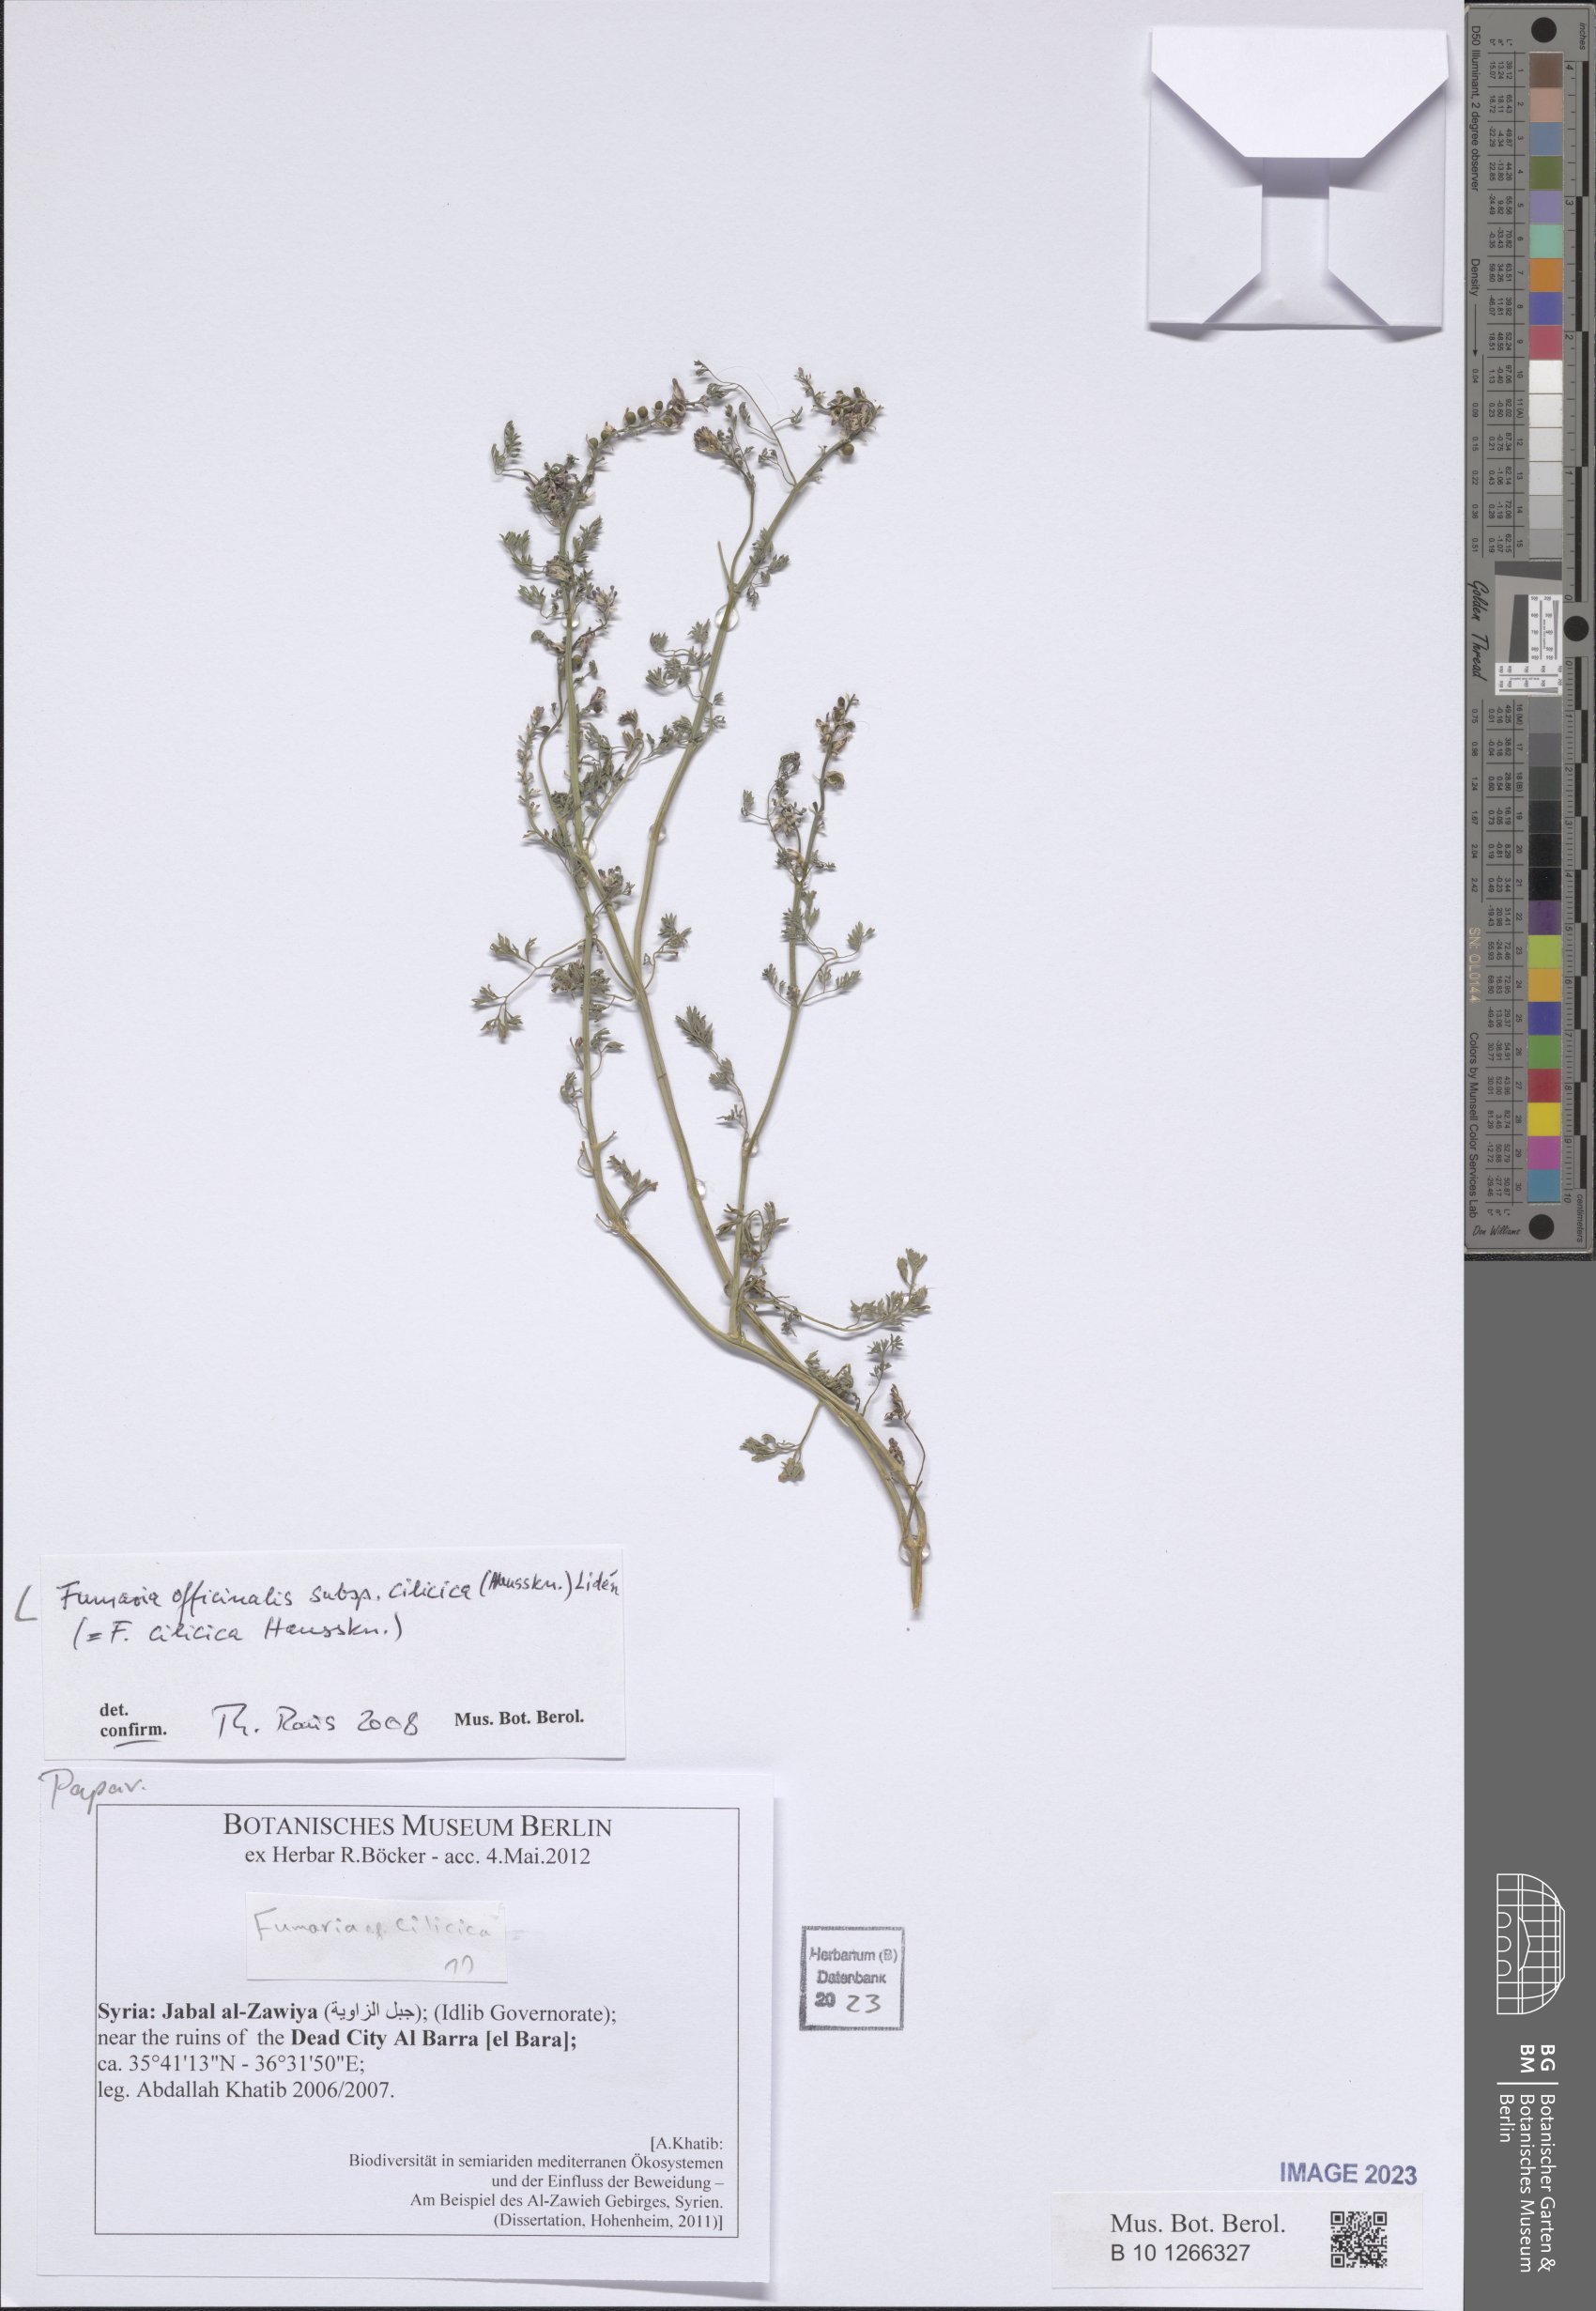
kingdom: Plantae
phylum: Tracheophyta
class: Magnoliopsida
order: Ranunculales
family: Papaveraceae
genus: Fumaria
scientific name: Fumaria cilicica
